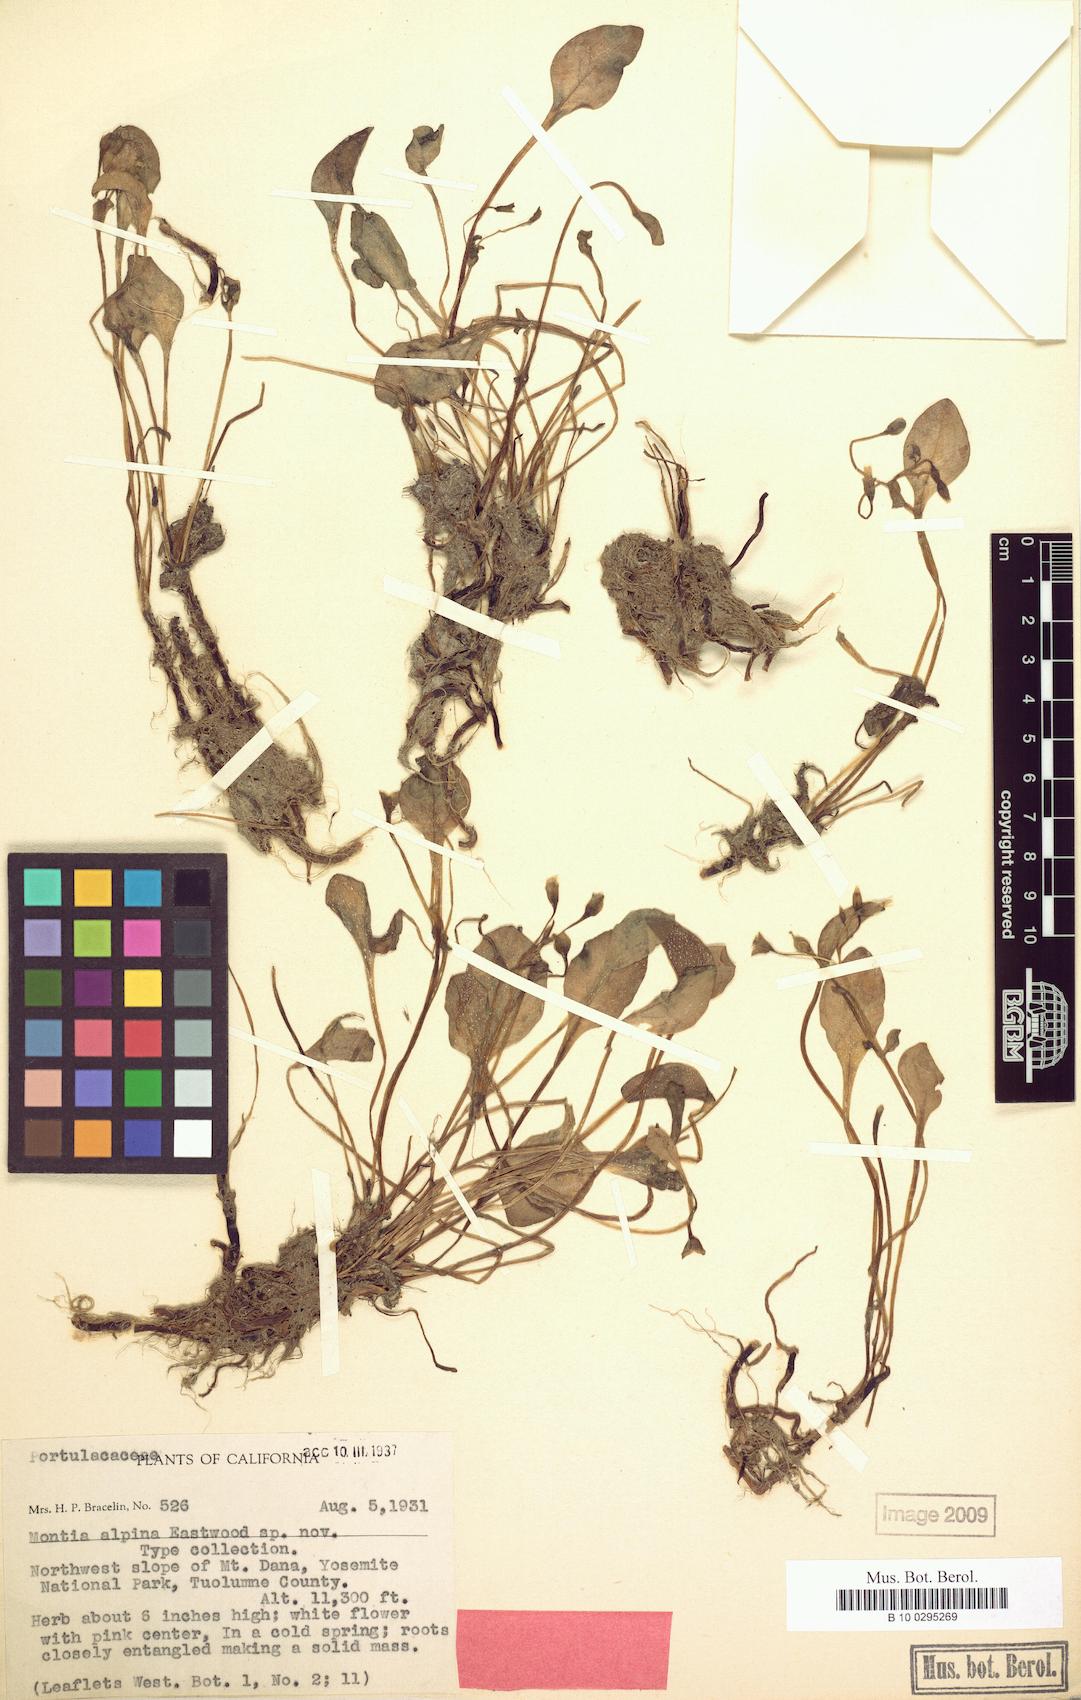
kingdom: Plantae
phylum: Tracheophyta
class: Magnoliopsida
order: Caryophyllales
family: Montiaceae
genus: Claytonia
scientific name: Claytonia nevadensis
